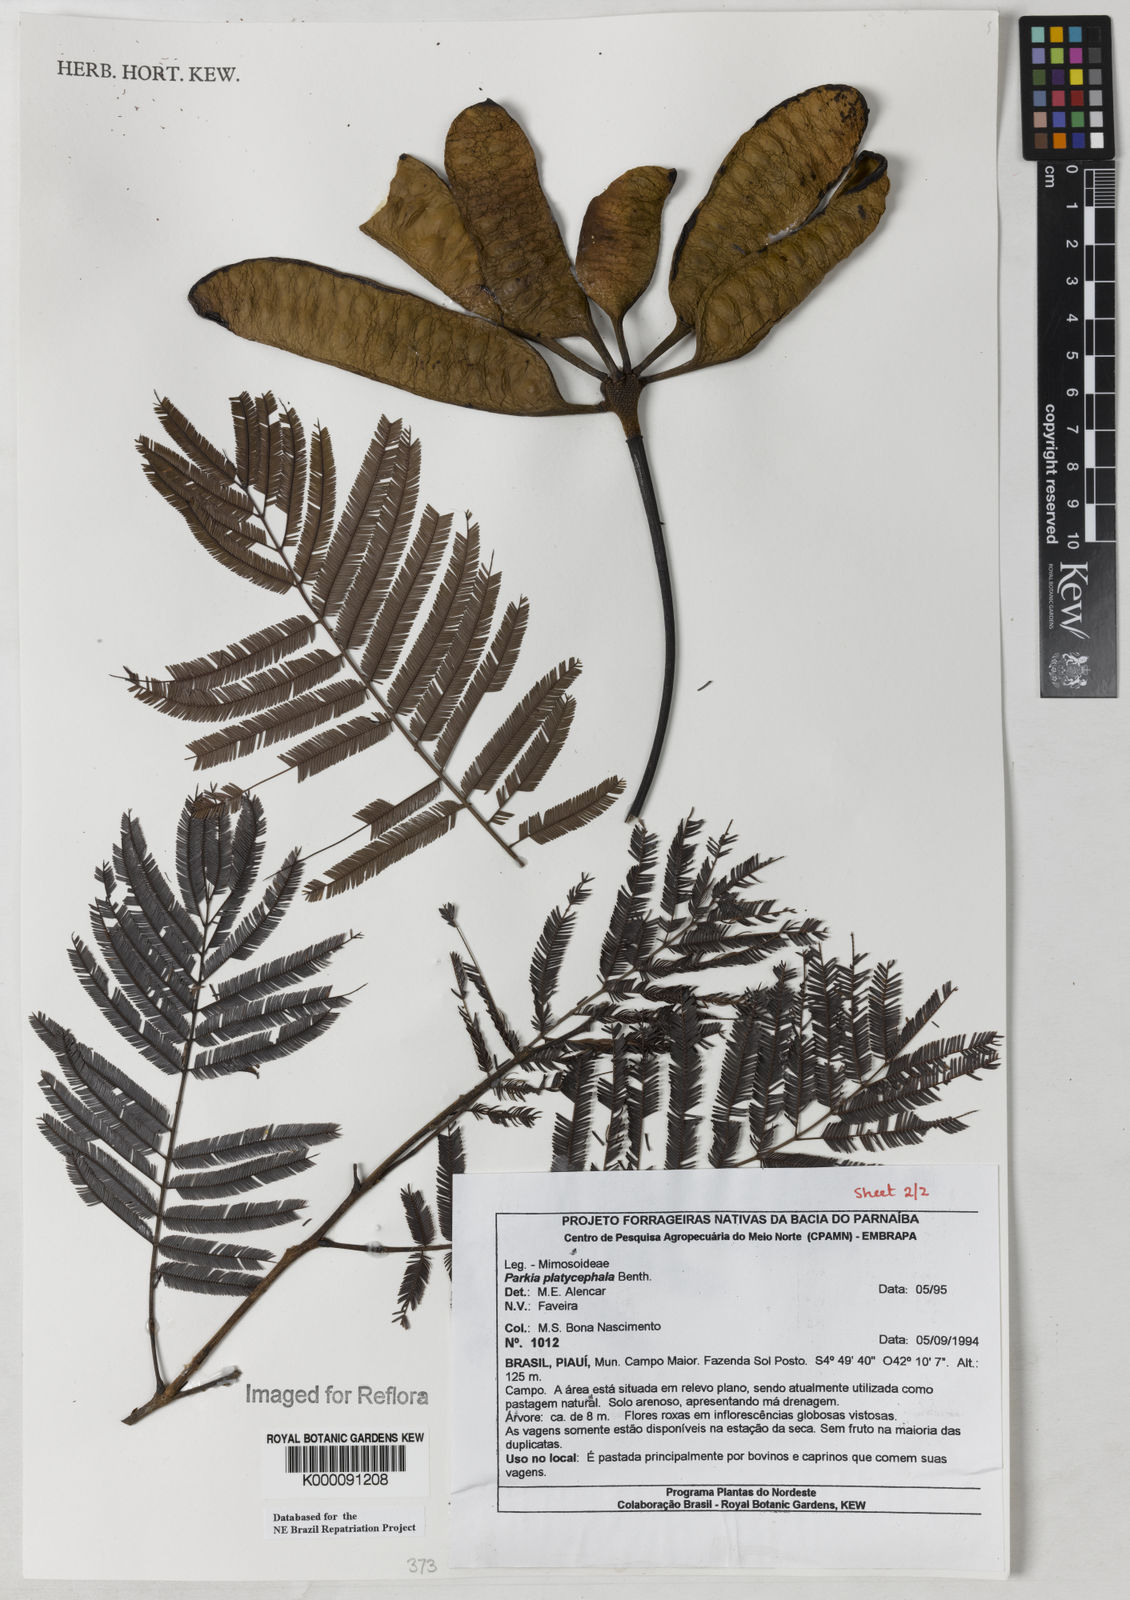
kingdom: Plantae
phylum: Tracheophyta
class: Magnoliopsida
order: Fabales
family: Fabaceae
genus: Parkia
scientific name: Parkia platycephala
